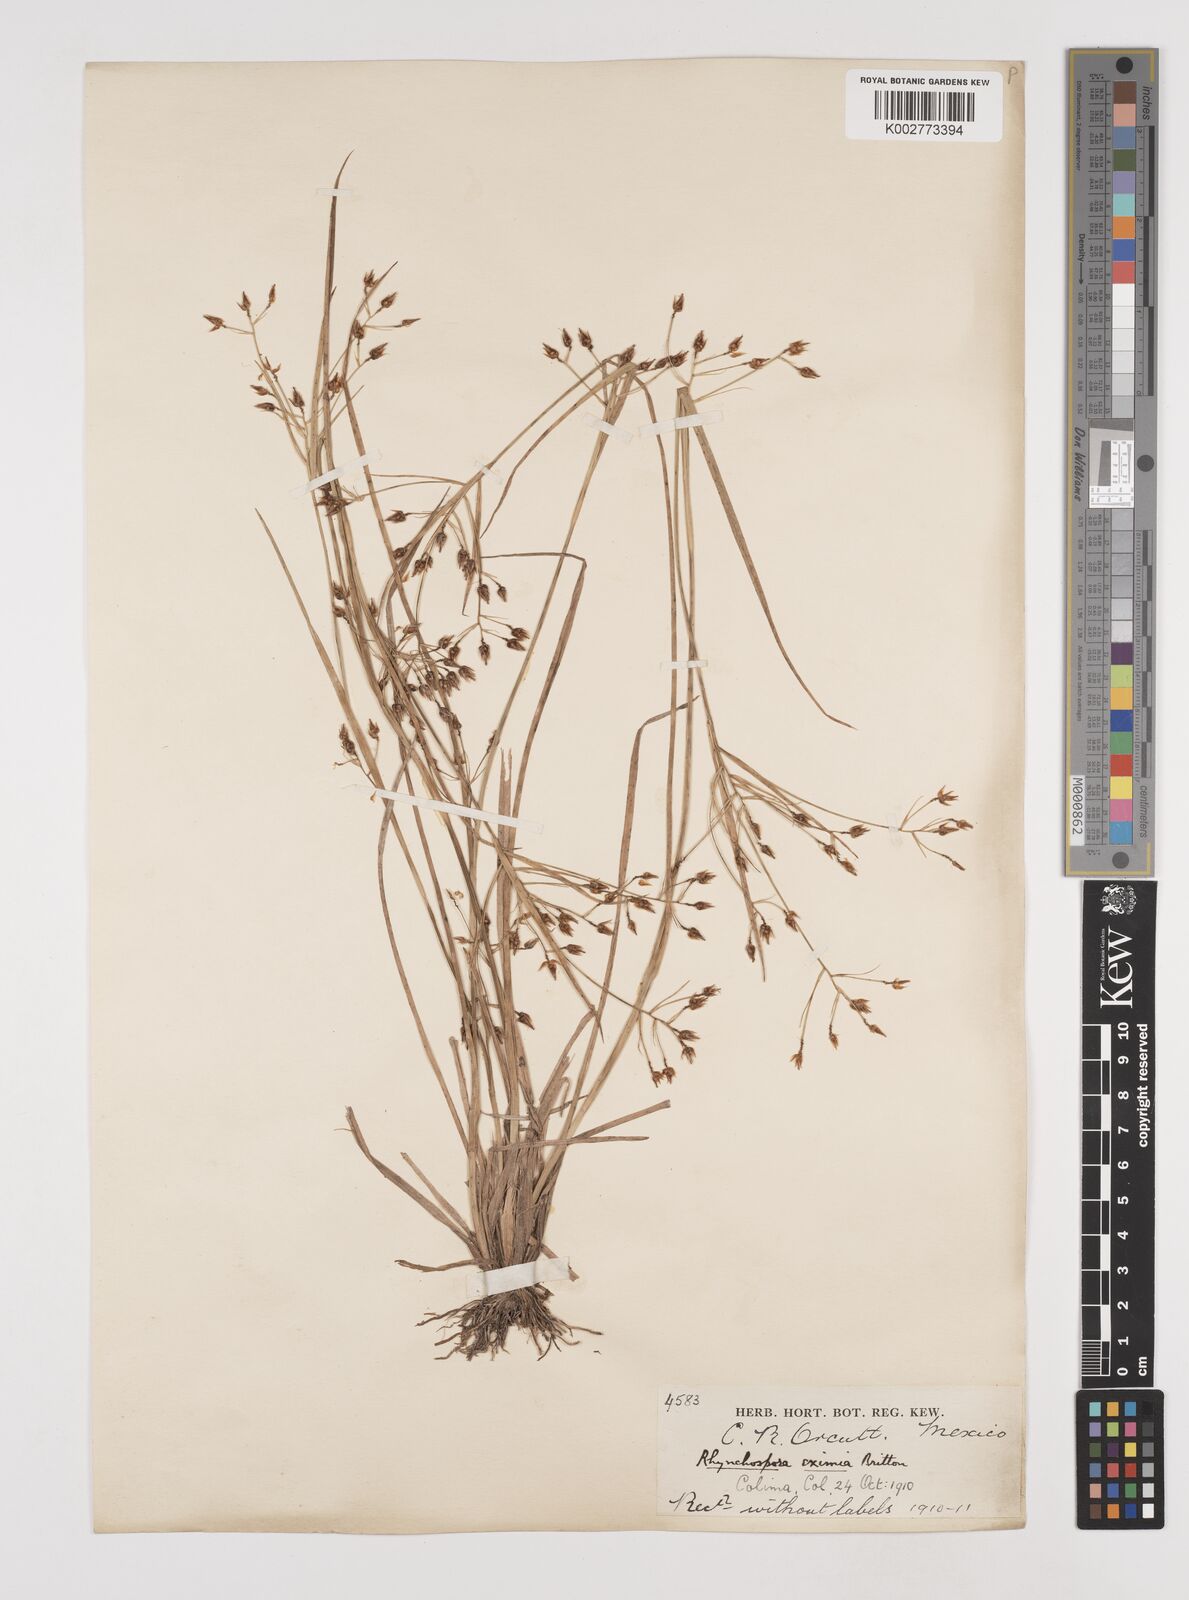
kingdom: Plantae
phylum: Tracheophyta
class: Liliopsida
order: Poales
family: Cyperaceae
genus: Rhynchospora
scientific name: Rhynchospora eximia
